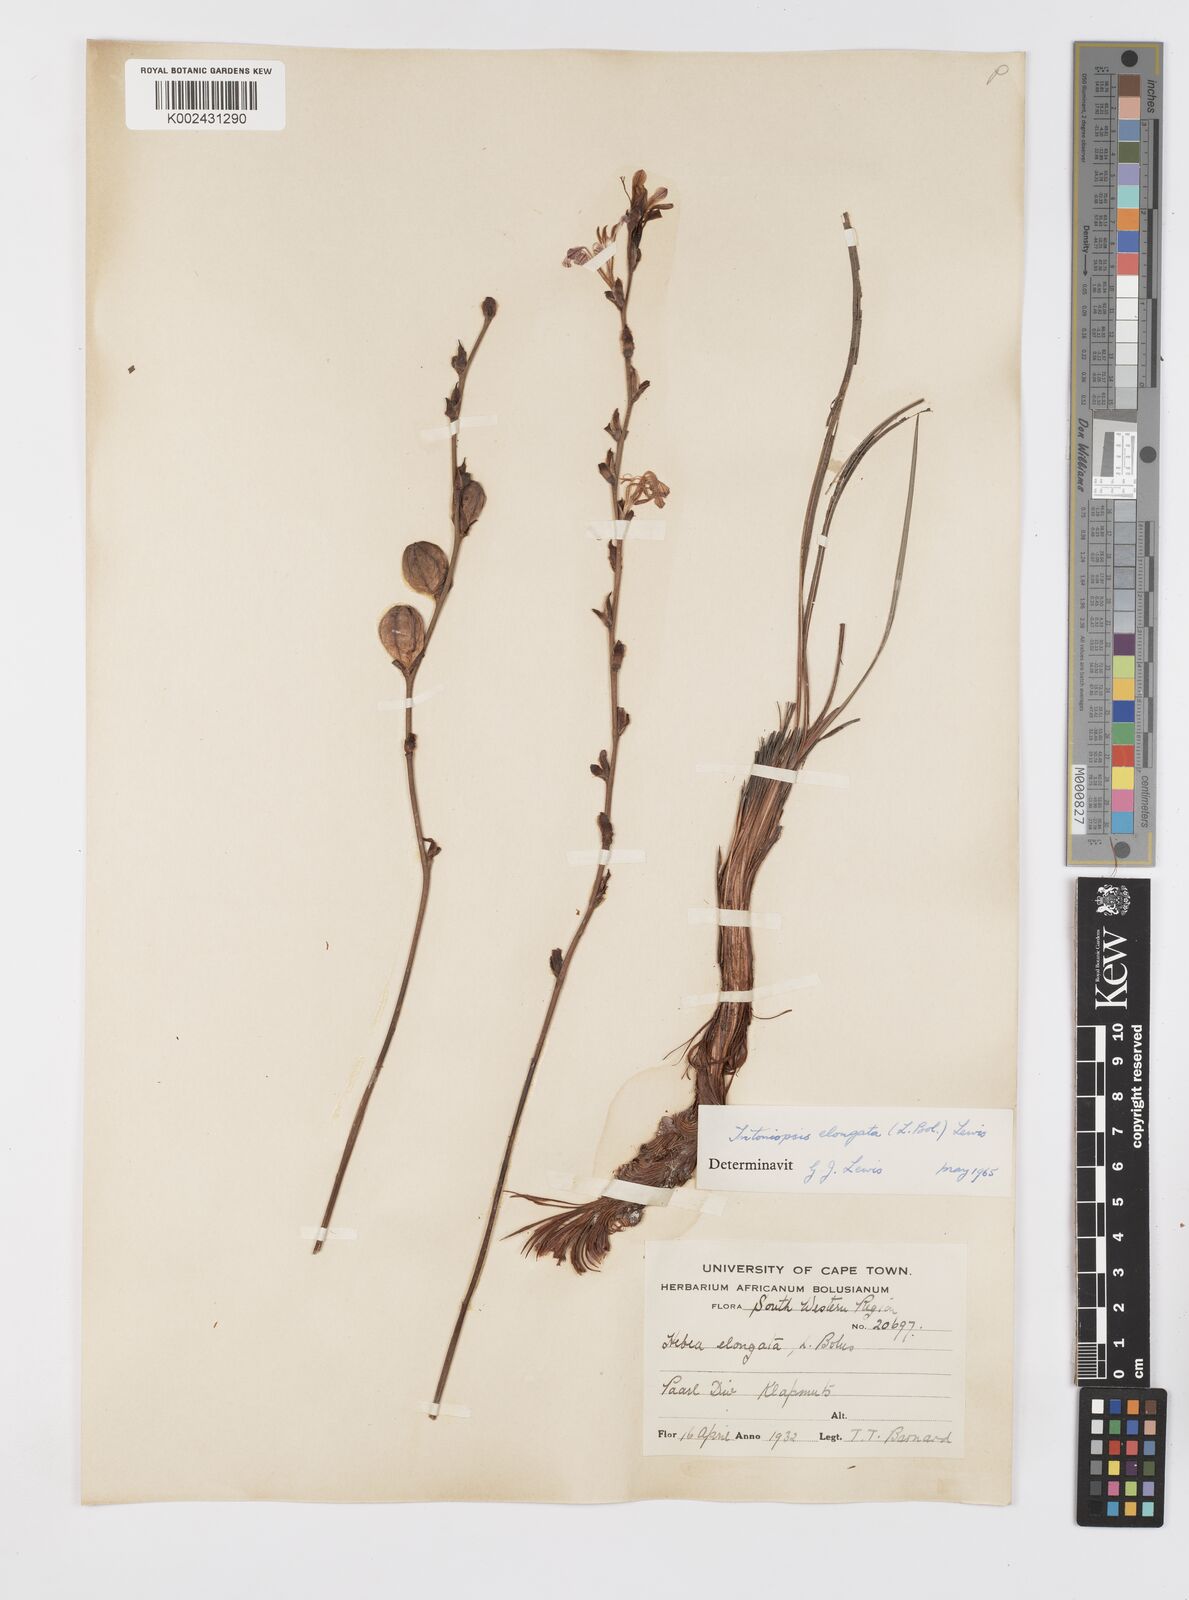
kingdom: Plantae
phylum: Tracheophyta
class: Liliopsida
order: Asparagales
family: Iridaceae
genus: Tritoniopsis
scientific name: Tritoniopsis elongata
